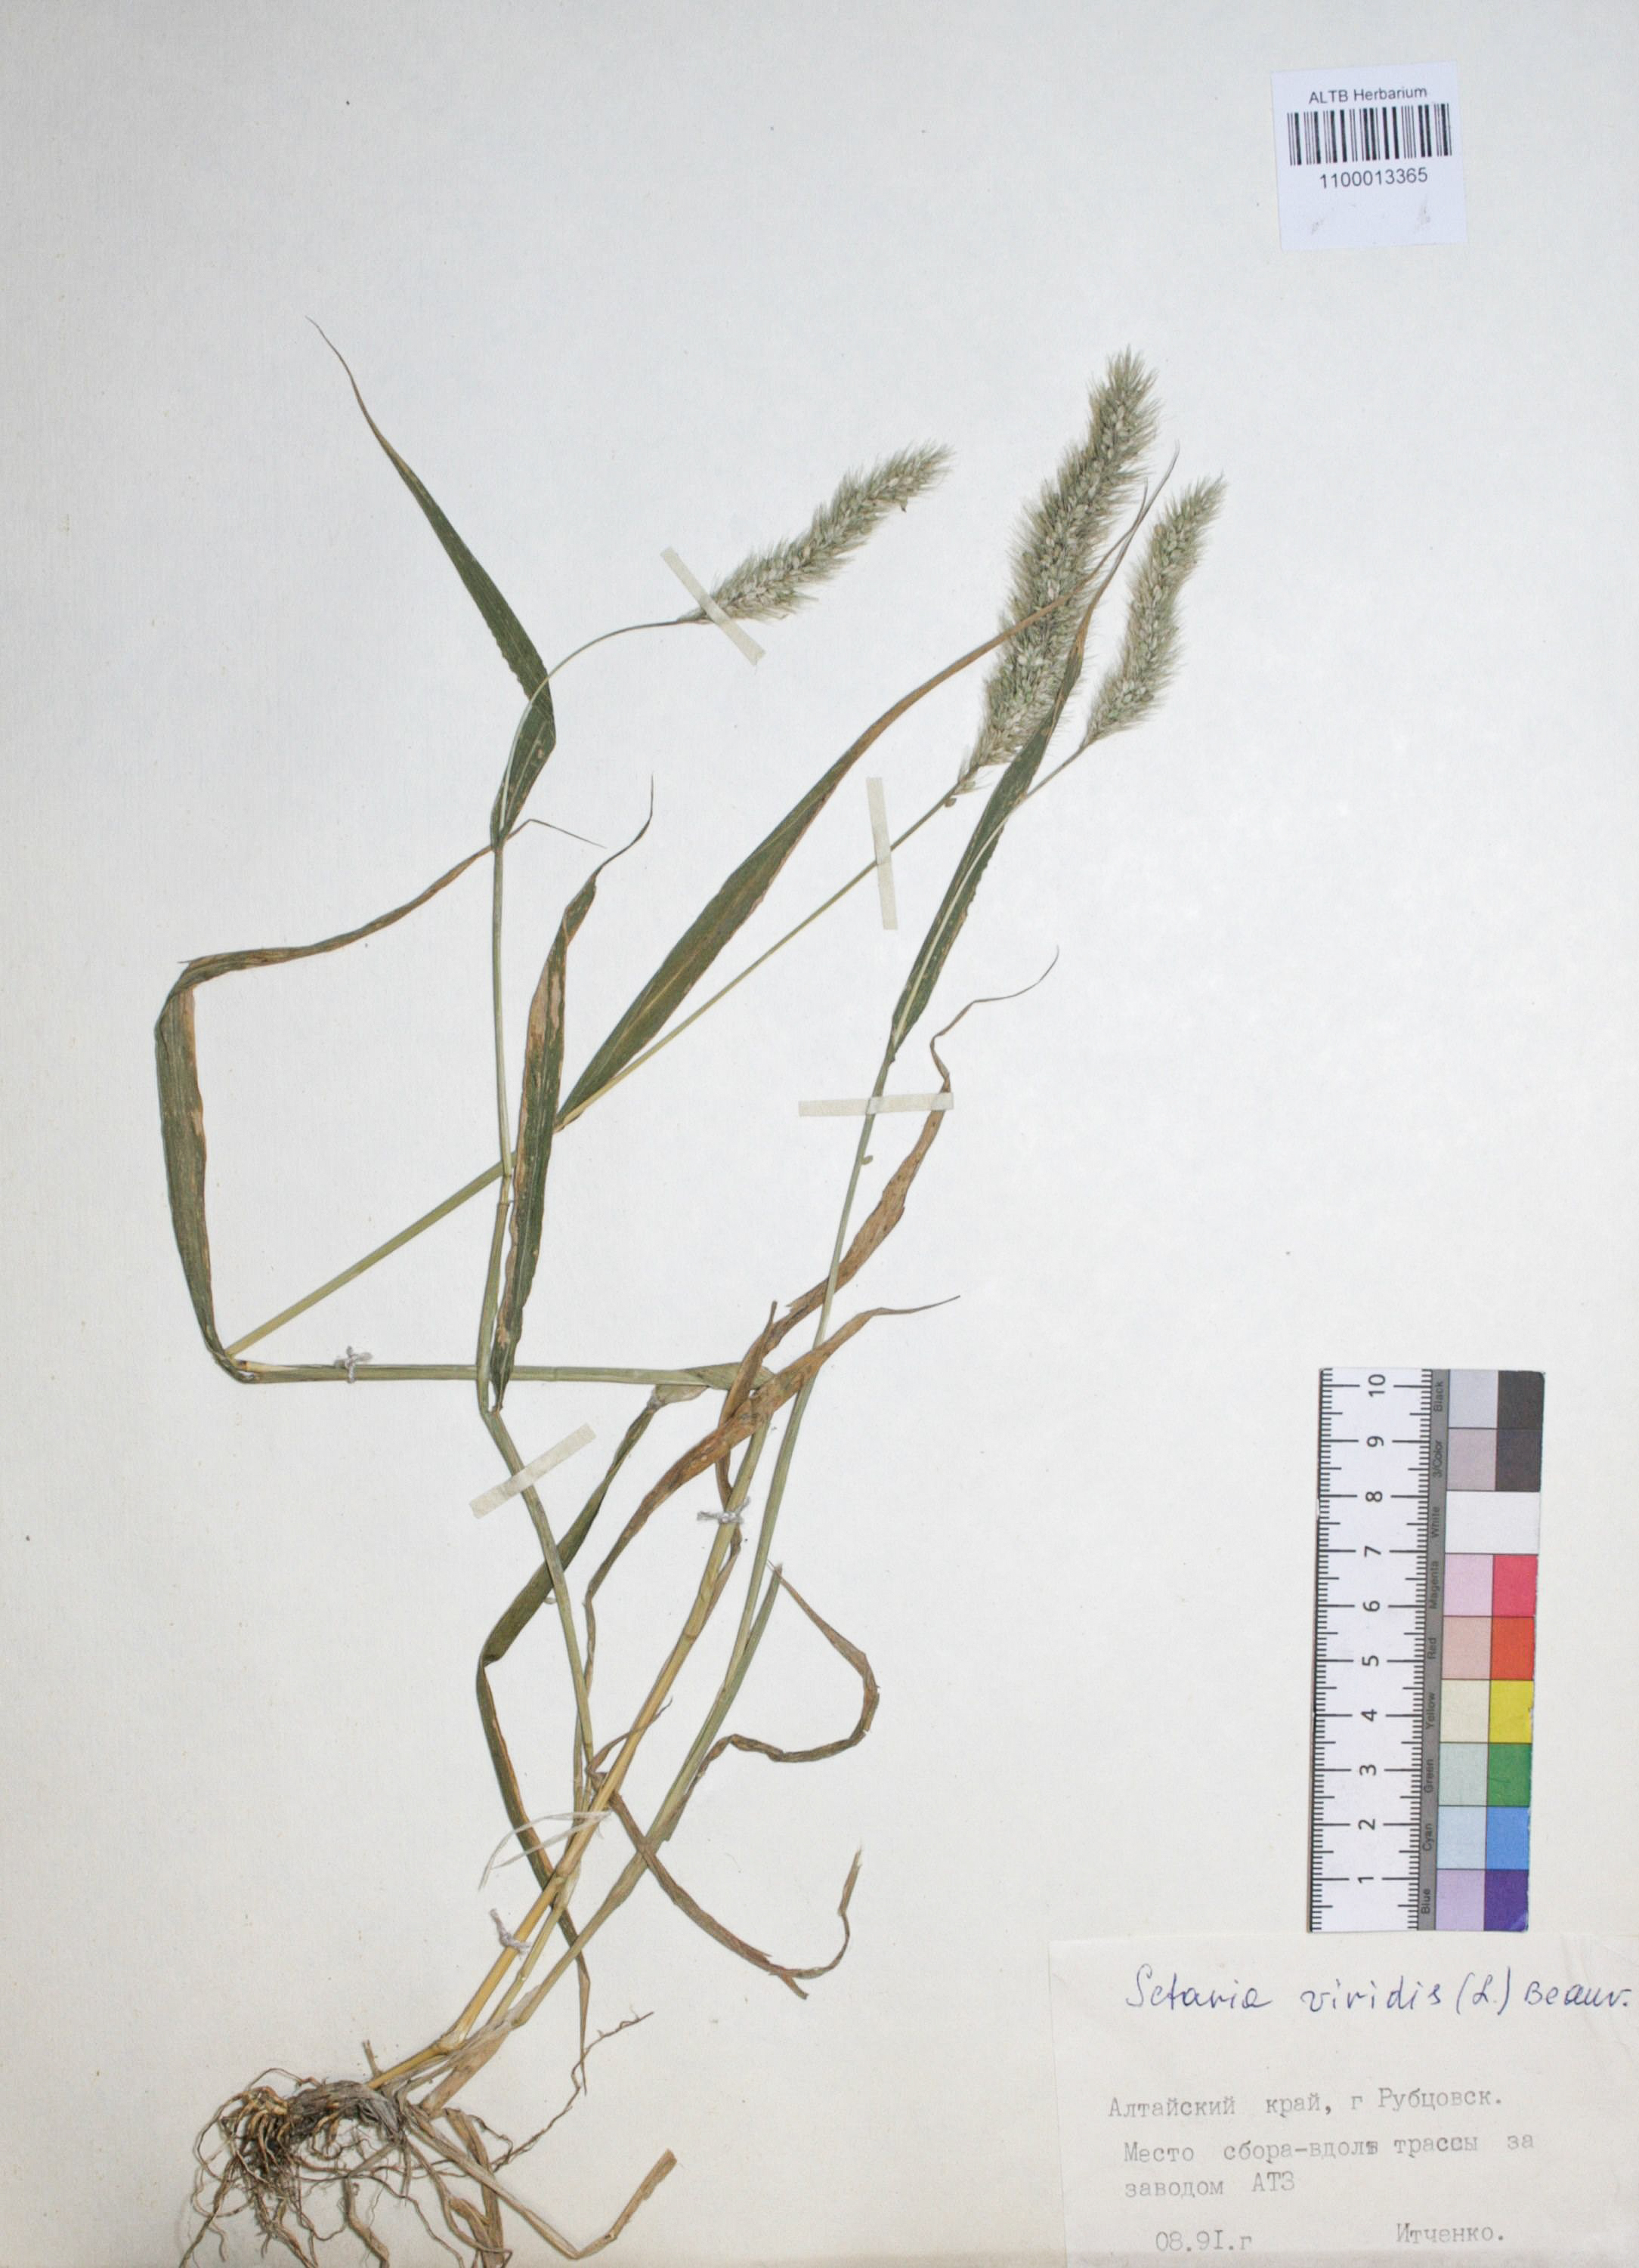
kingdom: Plantae
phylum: Tracheophyta
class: Liliopsida
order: Poales
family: Poaceae
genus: Setaria
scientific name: Setaria viridis
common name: Green bristlegrass
